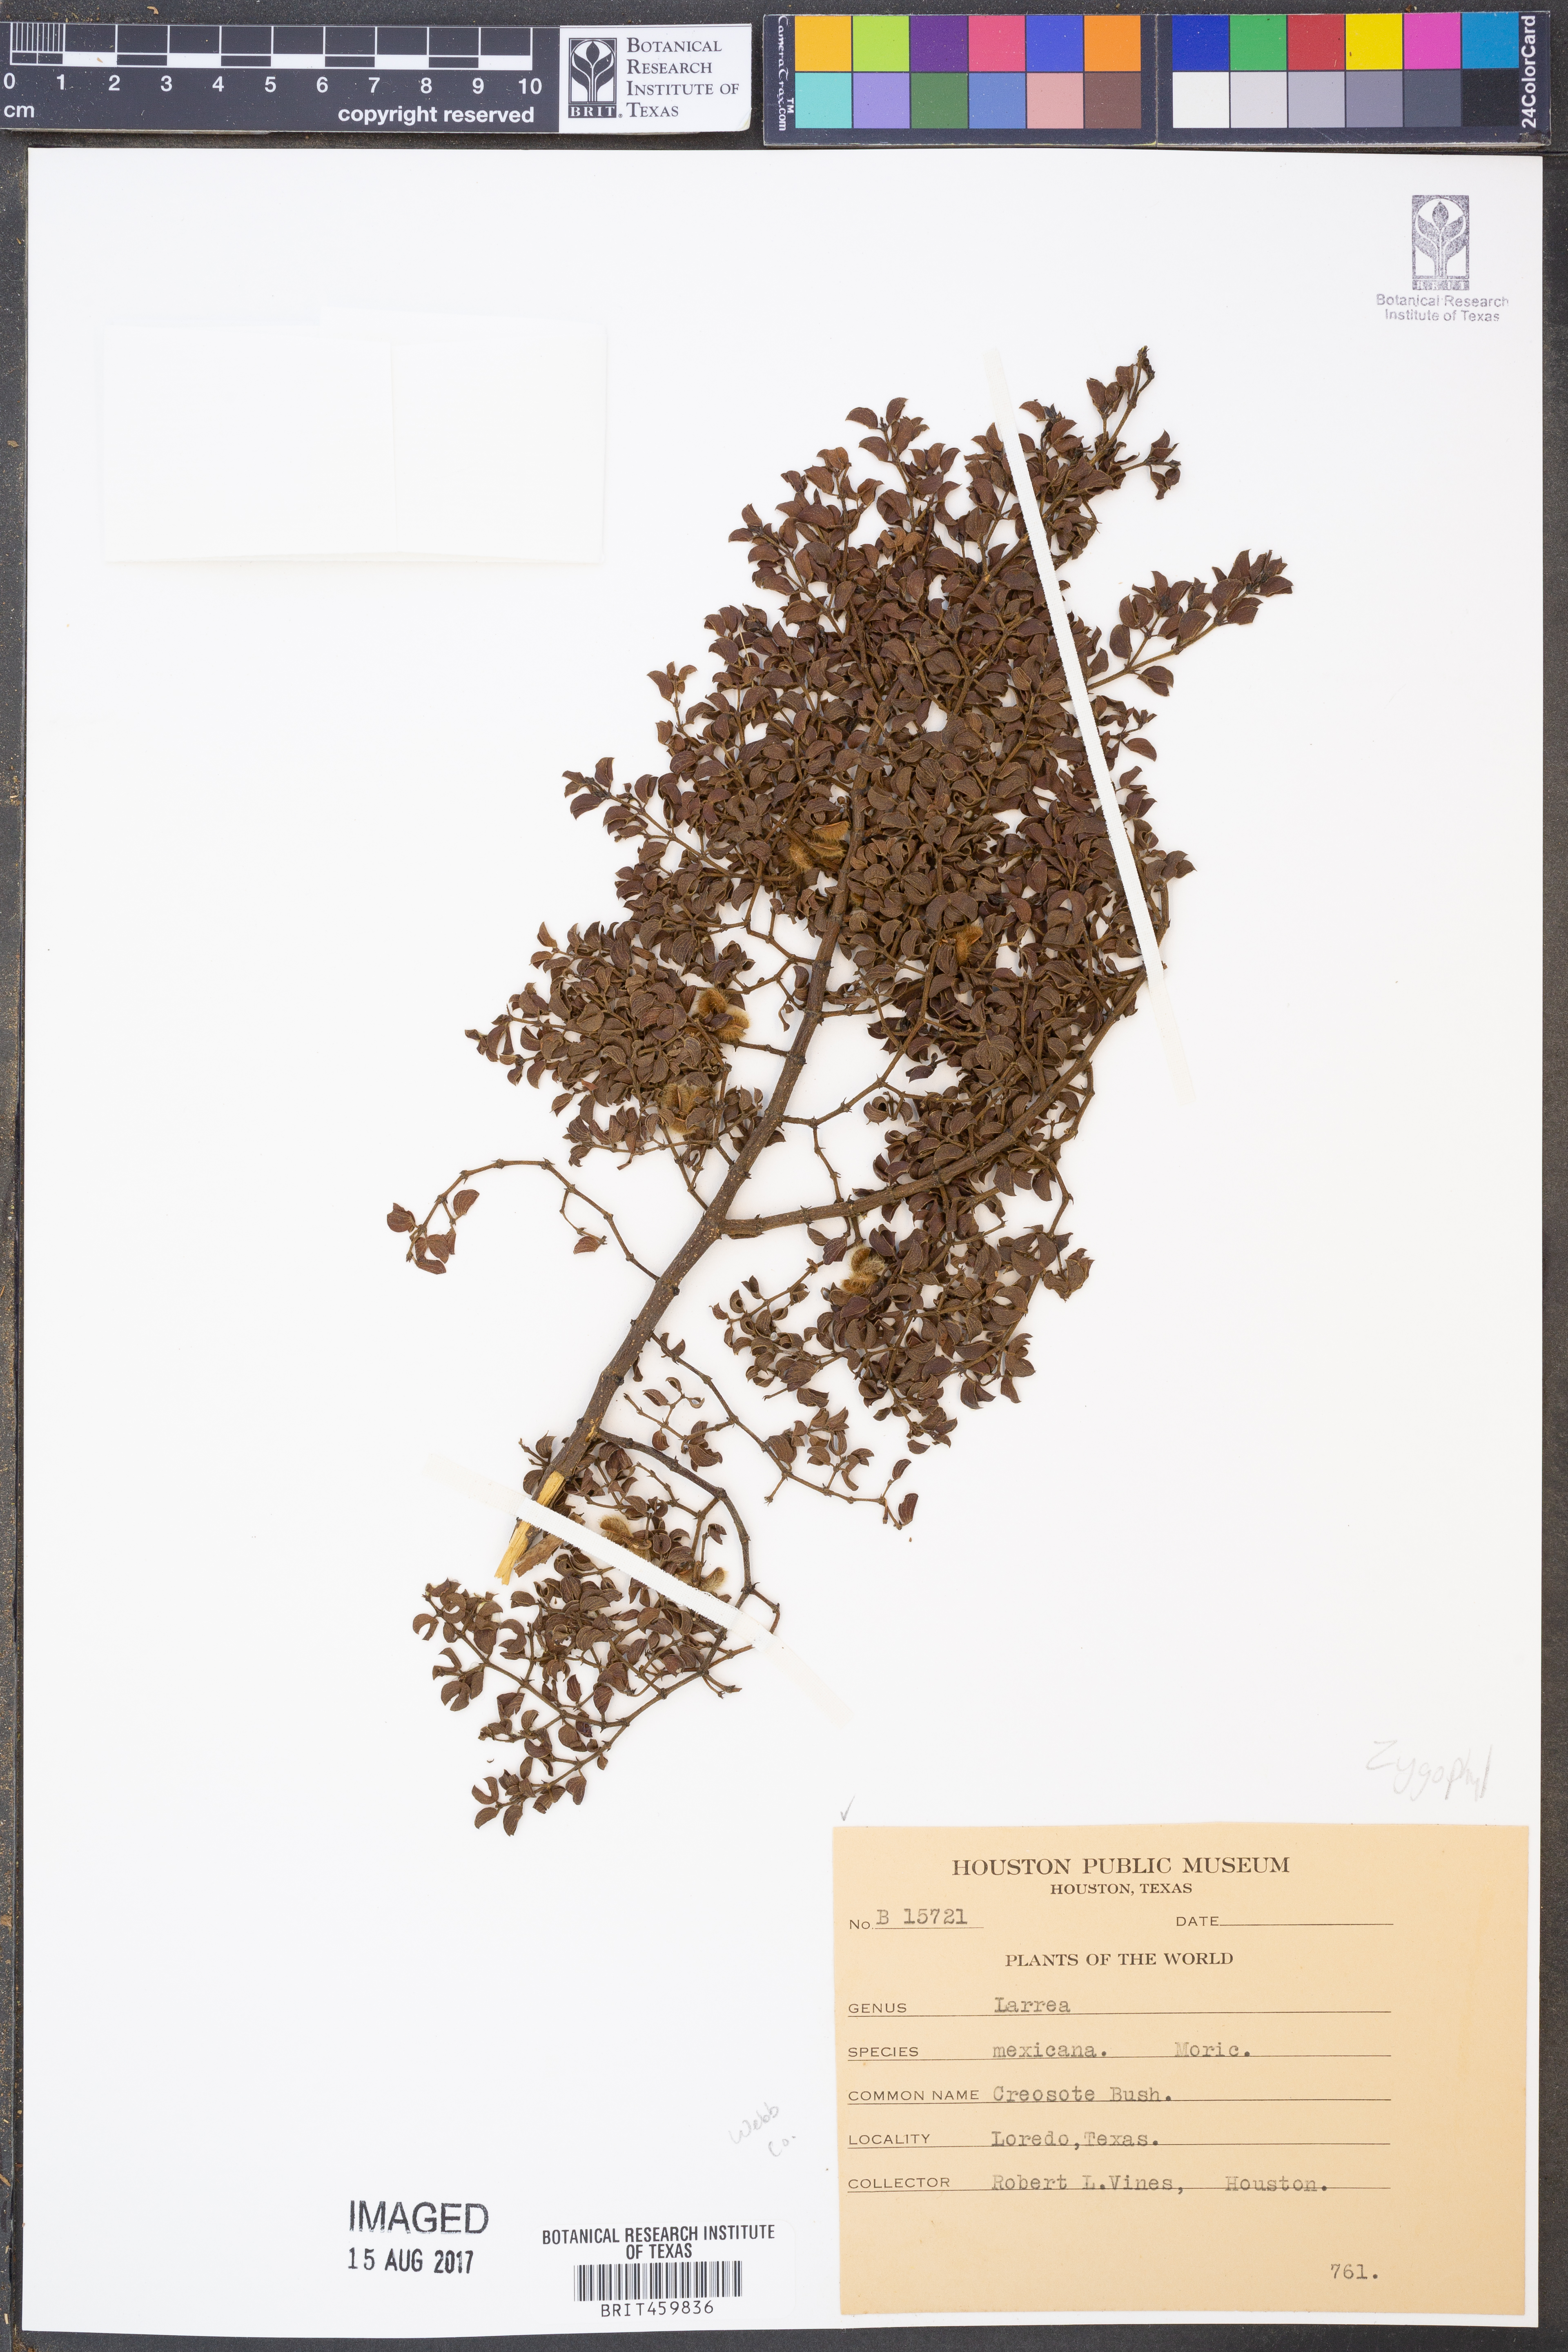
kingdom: Plantae
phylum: Tracheophyta
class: Magnoliopsida
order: Zygophyllales
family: Zygophyllaceae
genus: Larrea
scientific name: Larrea tridentata
